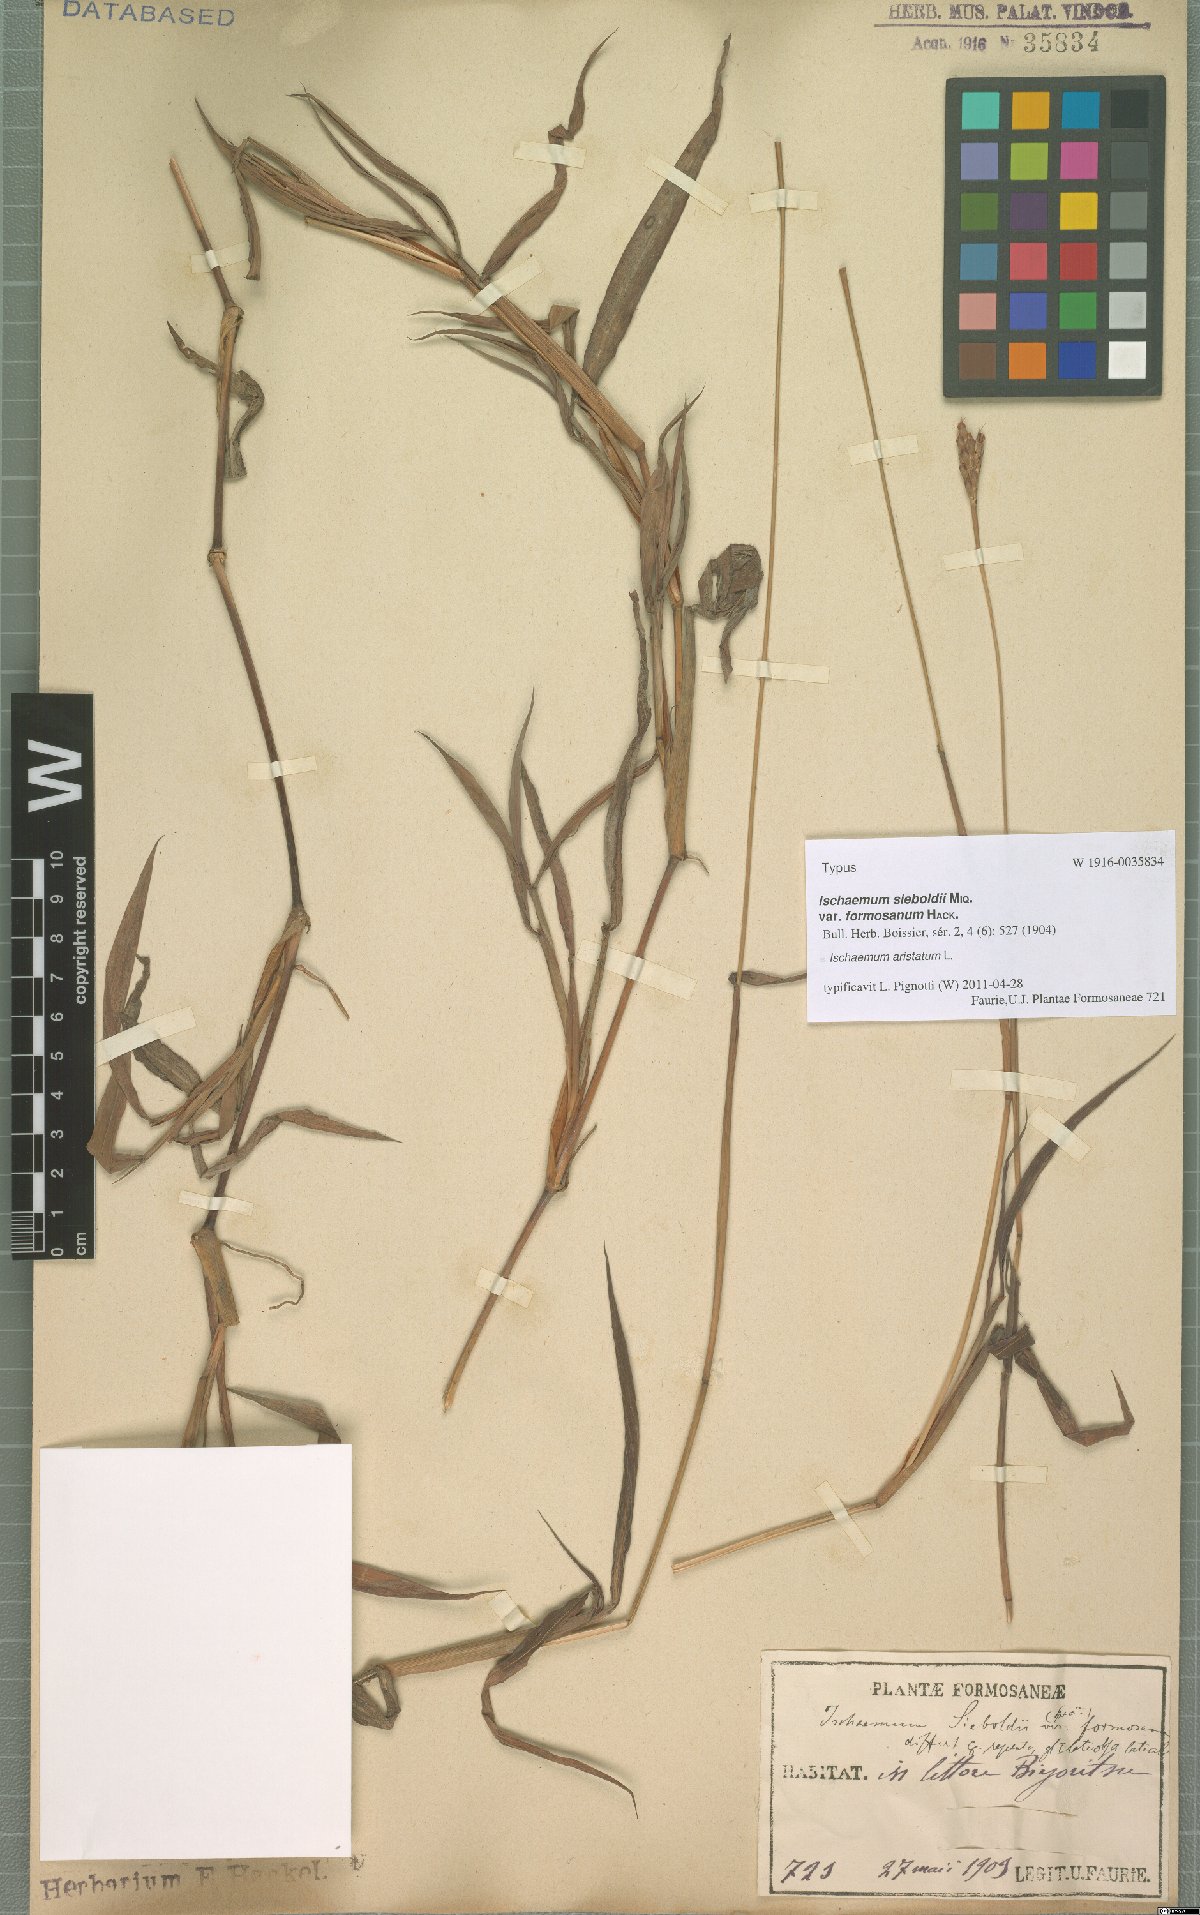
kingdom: Plantae
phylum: Tracheophyta
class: Liliopsida
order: Poales
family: Poaceae
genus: Ischaemum
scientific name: Ischaemum aristatum
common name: Toco grass
